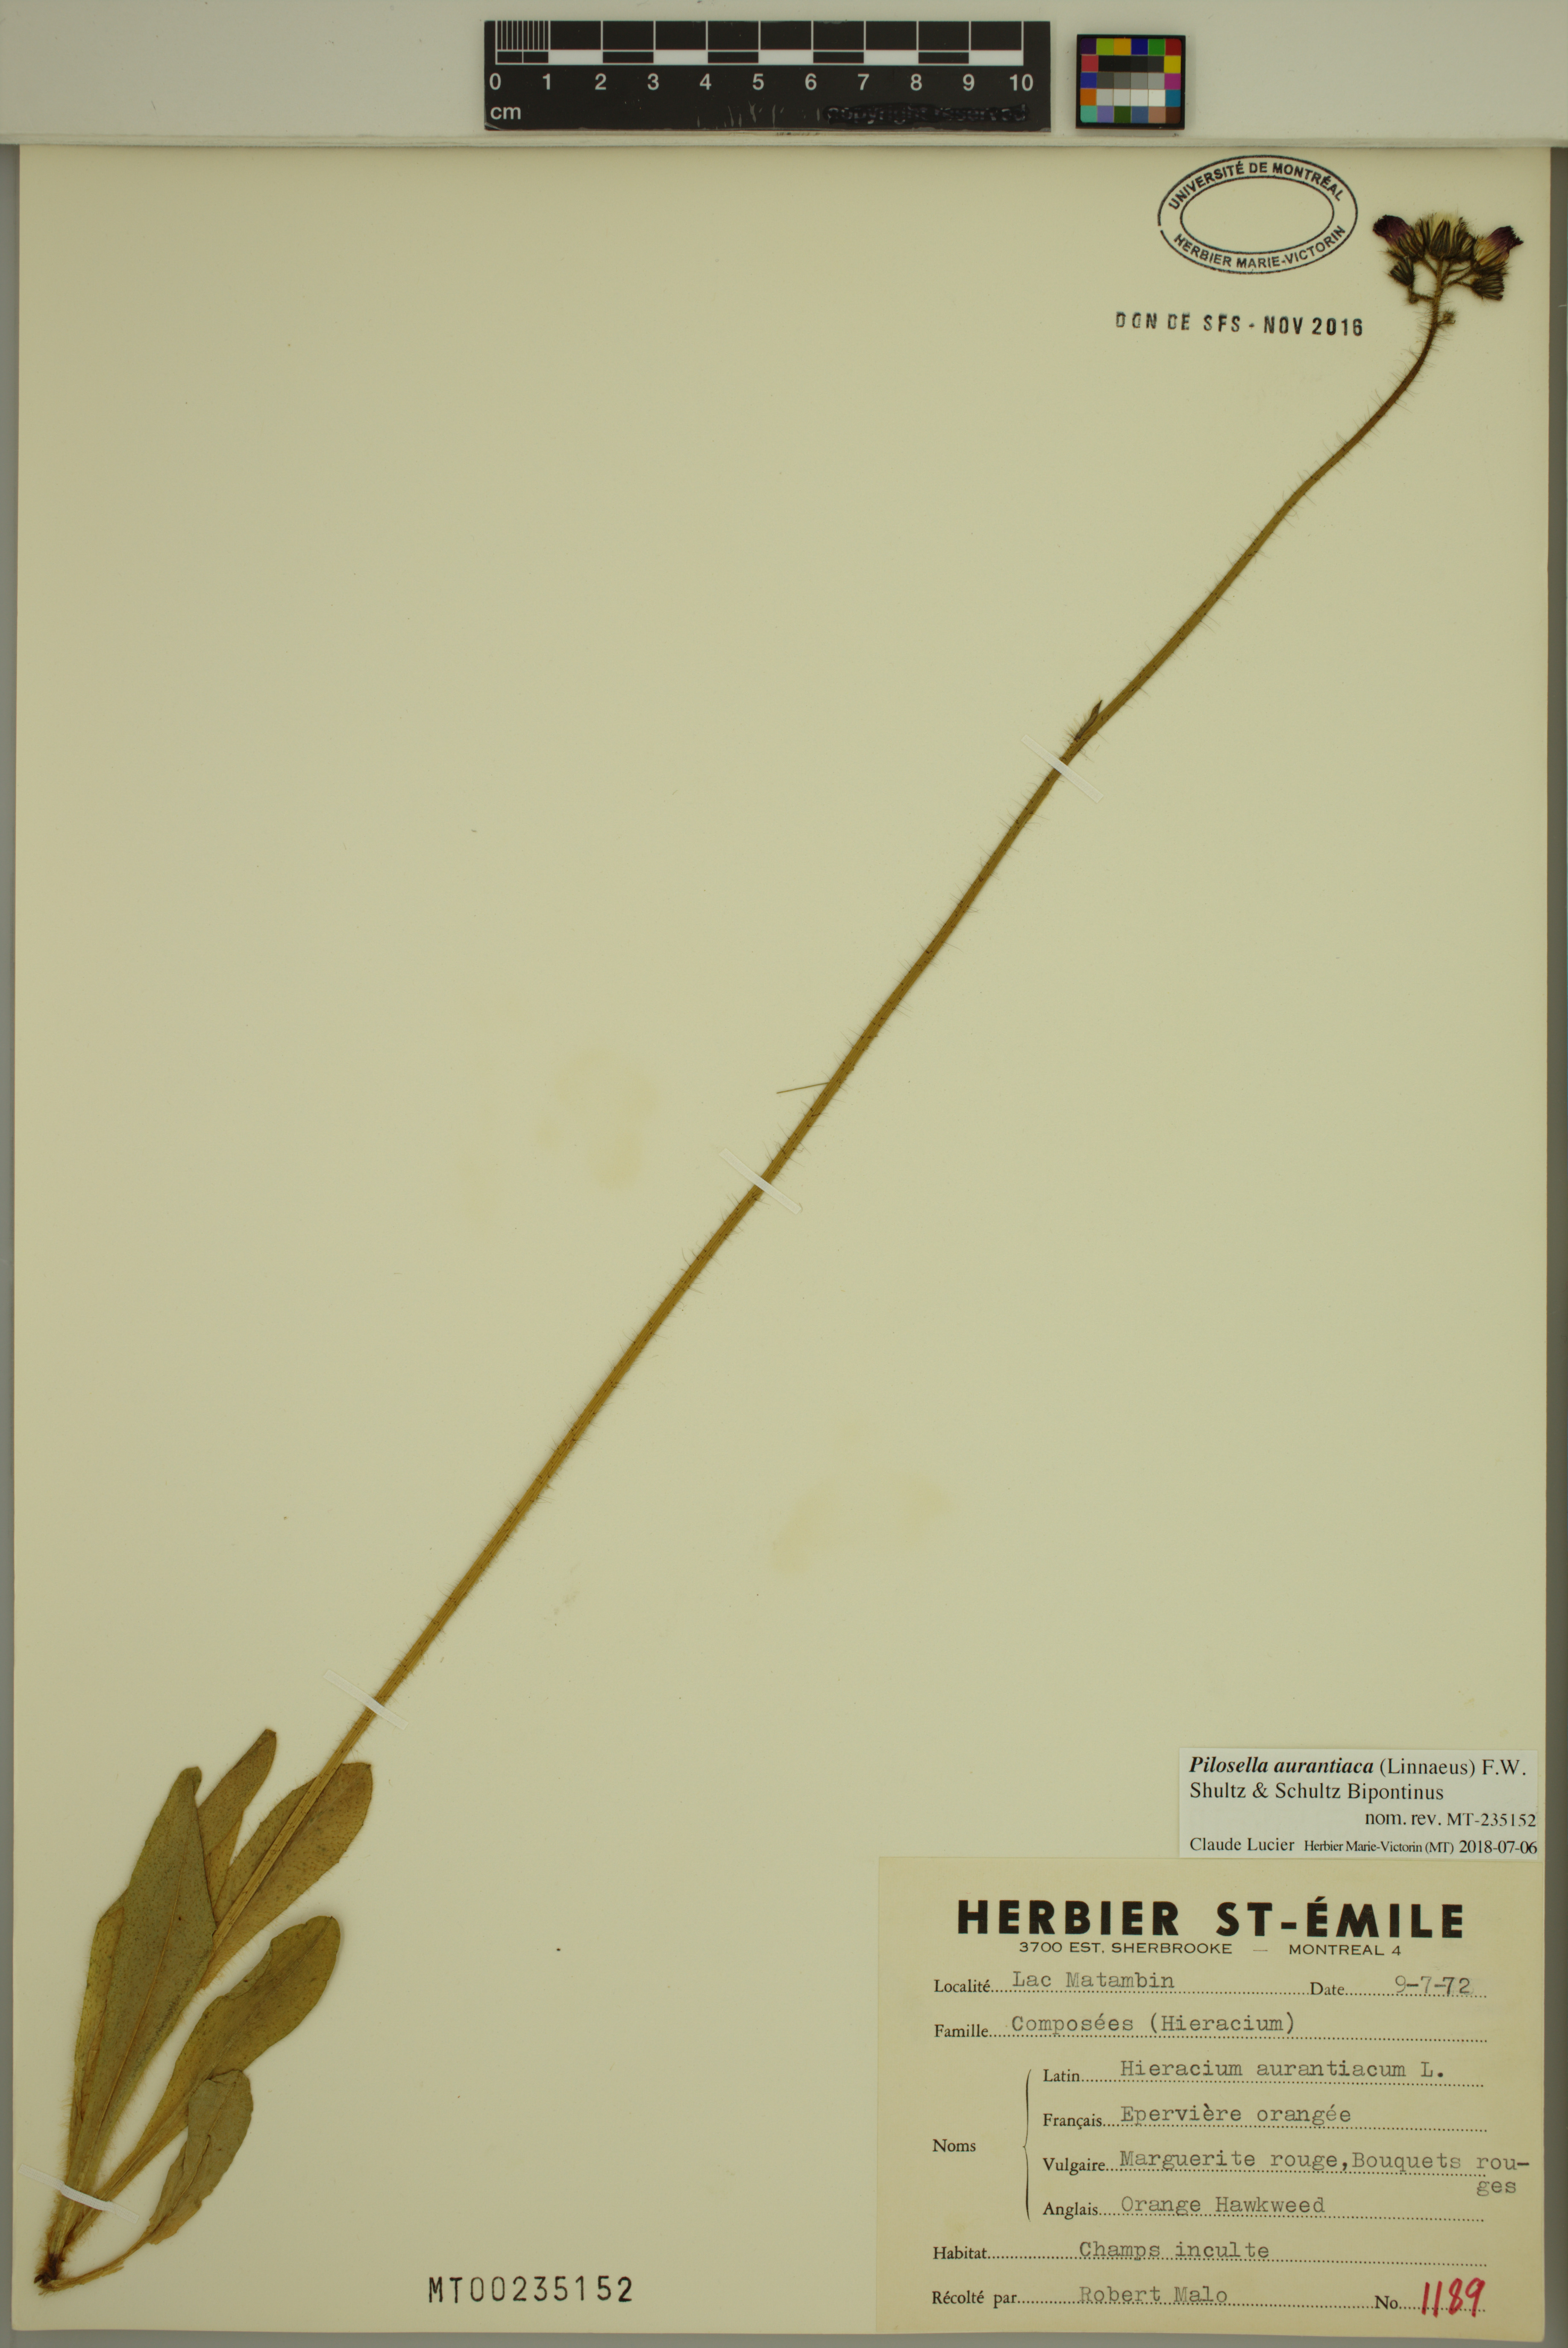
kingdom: Plantae
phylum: Tracheophyta
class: Magnoliopsida
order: Asterales
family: Asteraceae
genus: Pilosella
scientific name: Pilosella aurantiaca
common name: Fox-and-cubs
